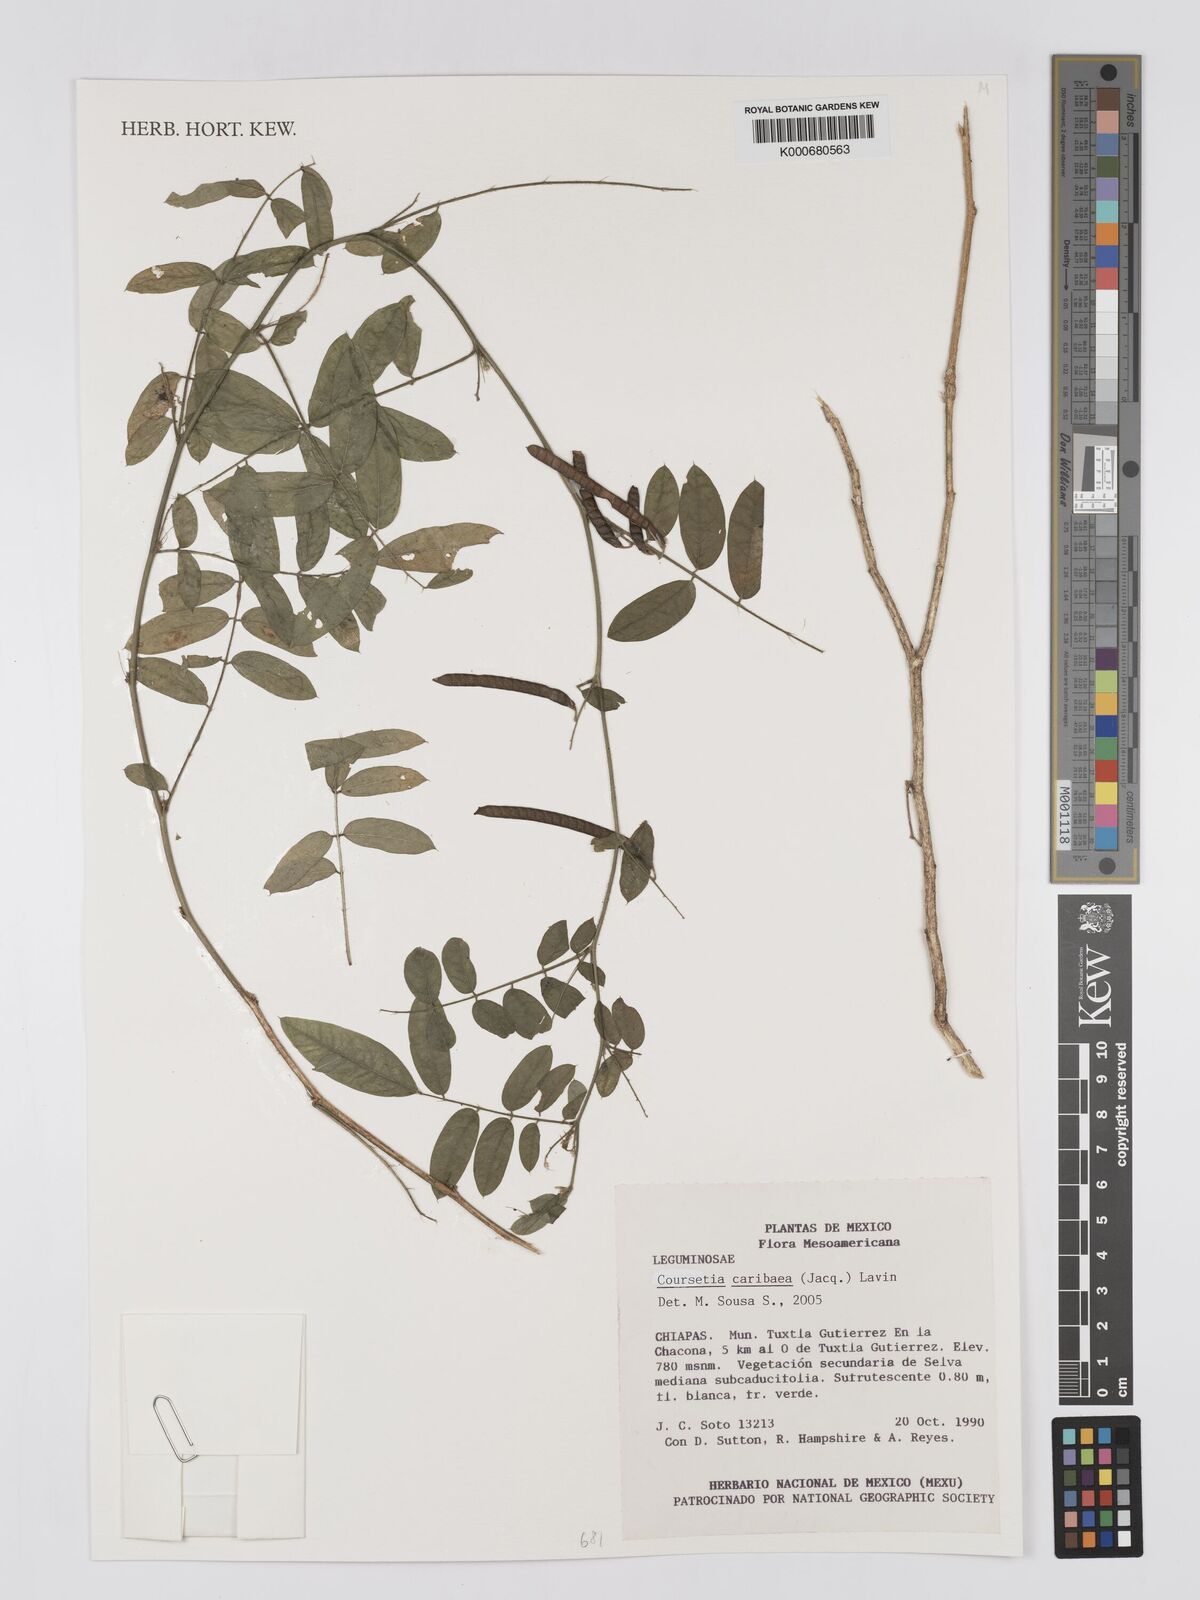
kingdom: Plantae
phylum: Tracheophyta
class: Magnoliopsida
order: Fabales
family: Fabaceae
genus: Coursetia
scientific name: Coursetia caribaea
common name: Anil falso
